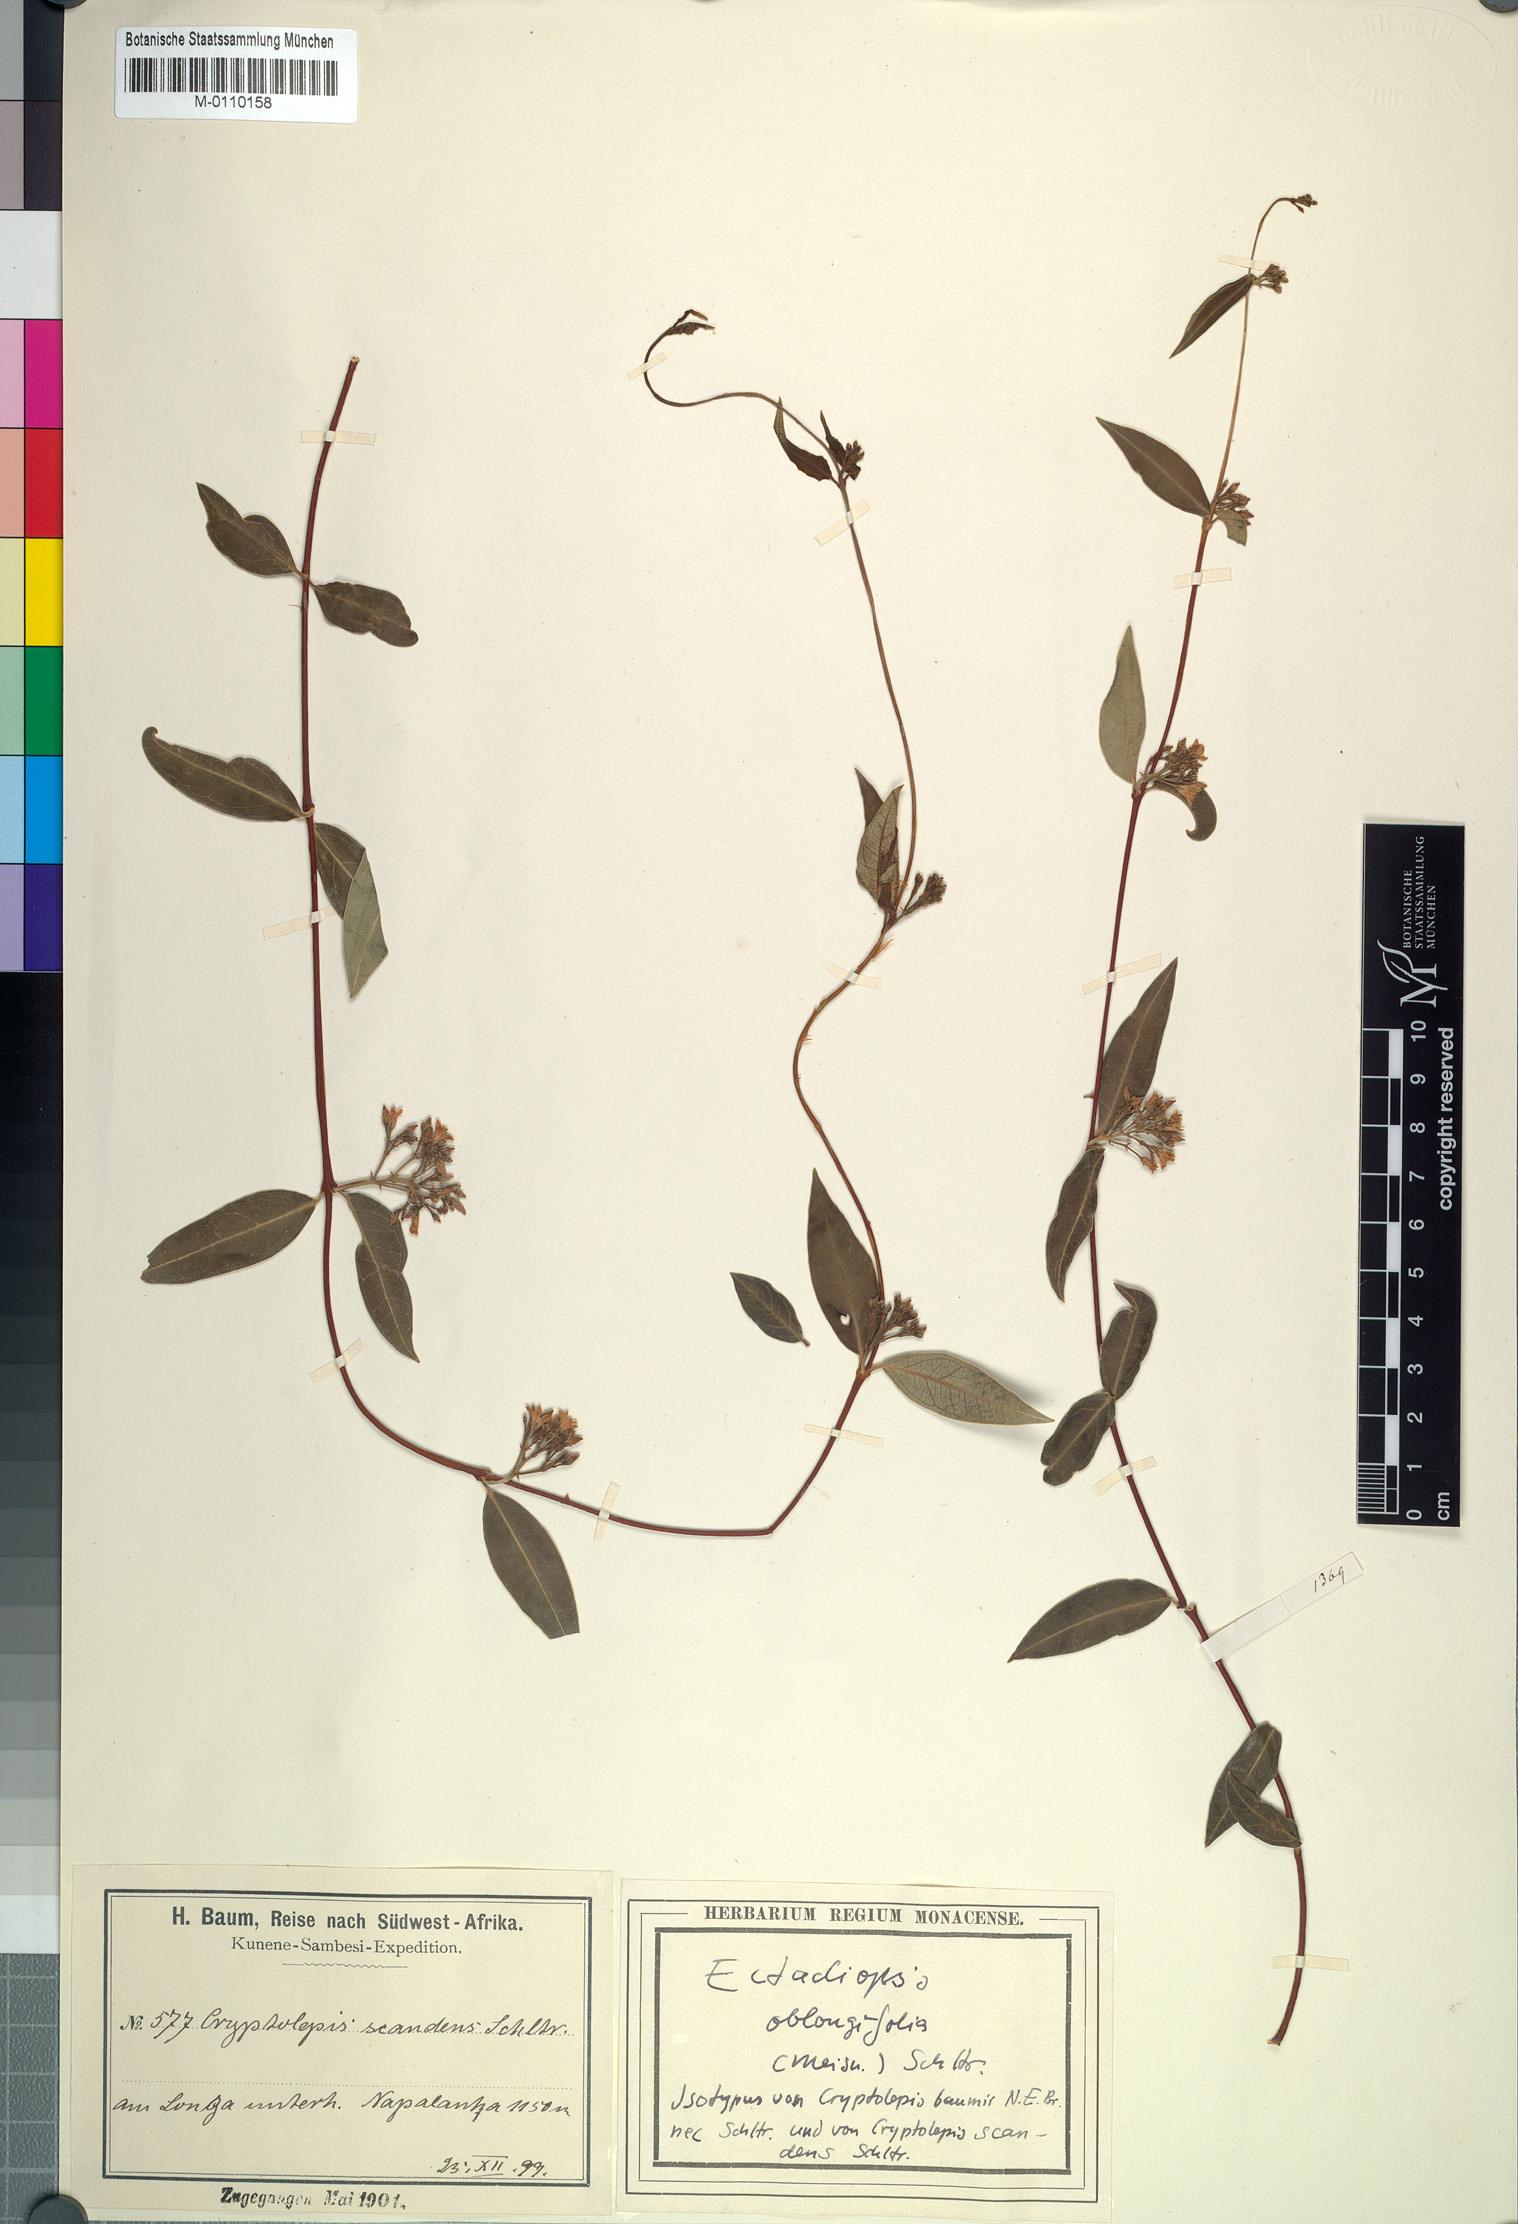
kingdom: Plantae
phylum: Tracheophyta
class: Magnoliopsida
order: Gentianales
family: Apocynaceae
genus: Cryptolepis
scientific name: Cryptolepis oblongifolia
